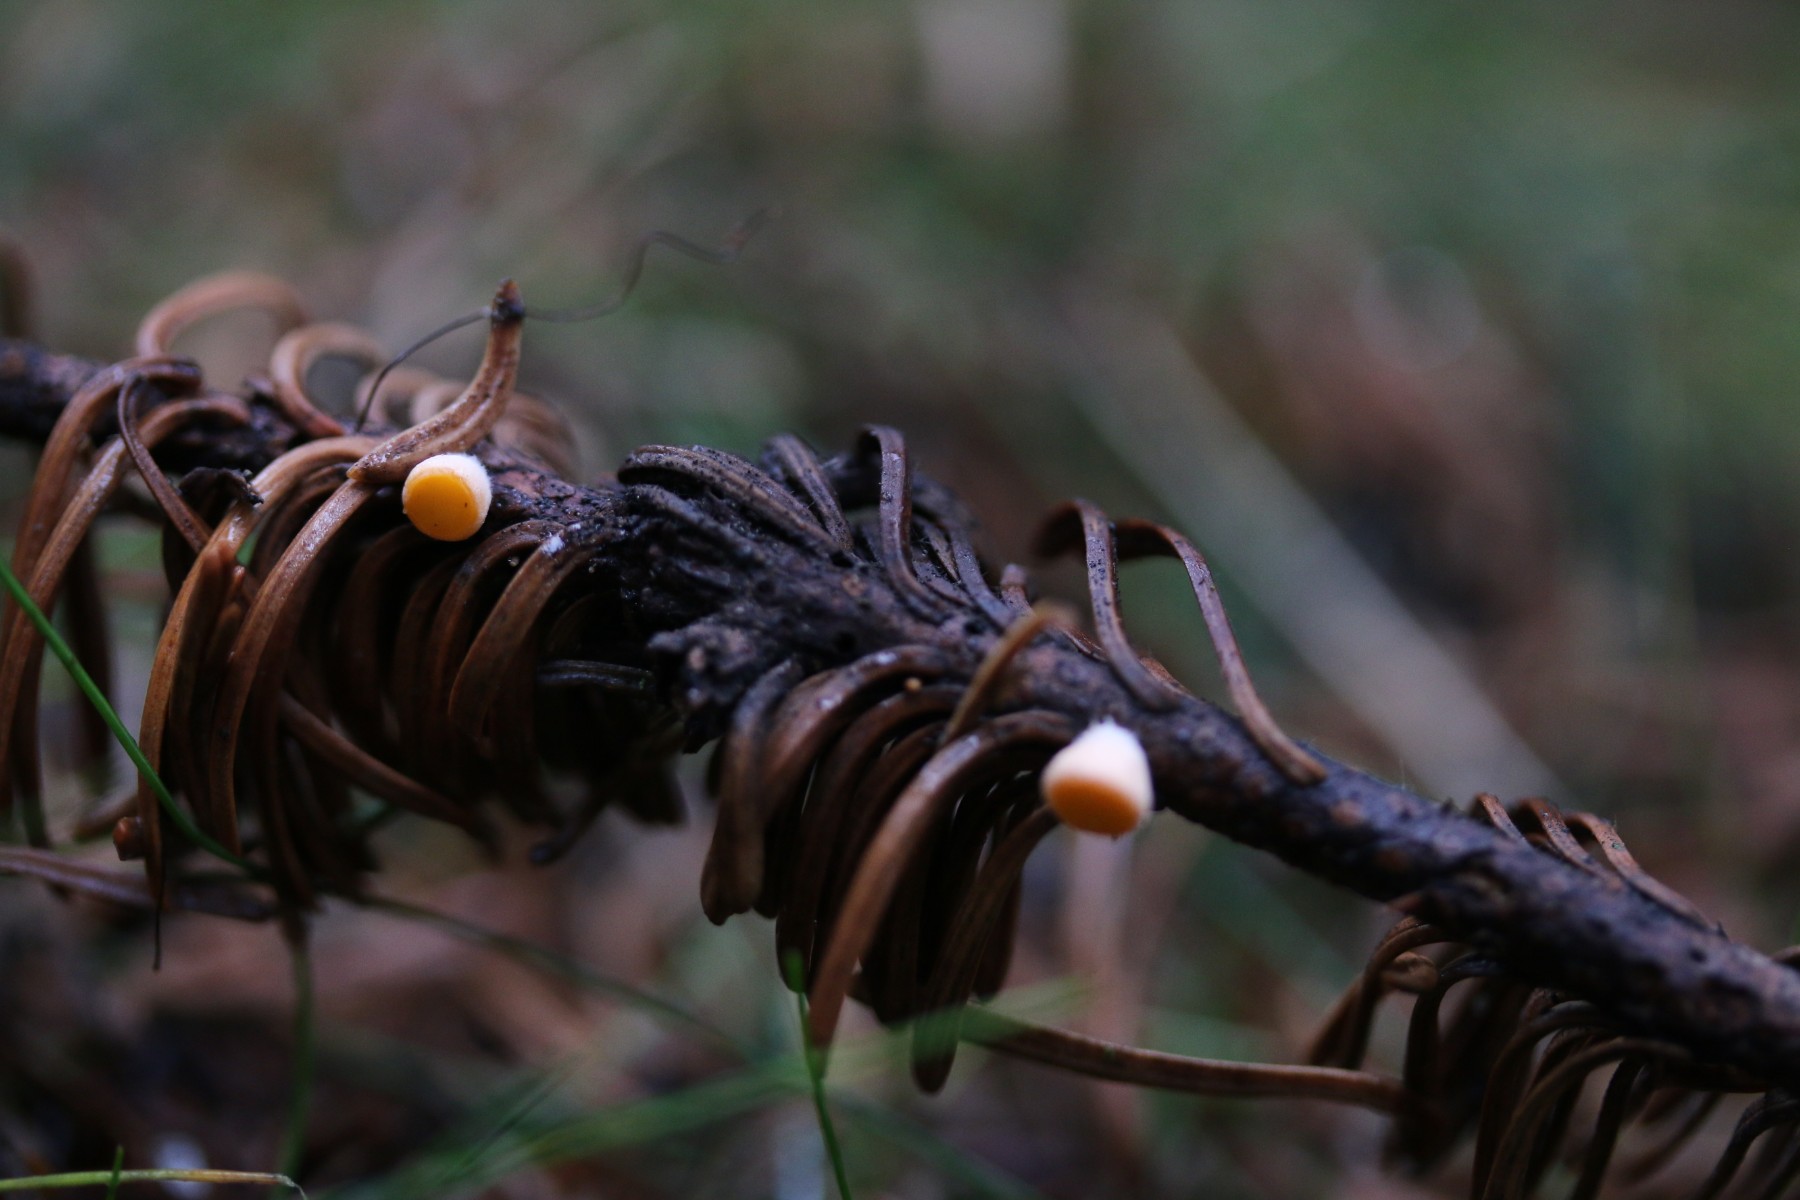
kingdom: Fungi
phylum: Ascomycota
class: Pezizomycetes
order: Pezizales
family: Sarcoscyphaceae
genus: Pithya
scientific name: Pithya vulgaris
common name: stor dukatbæger
